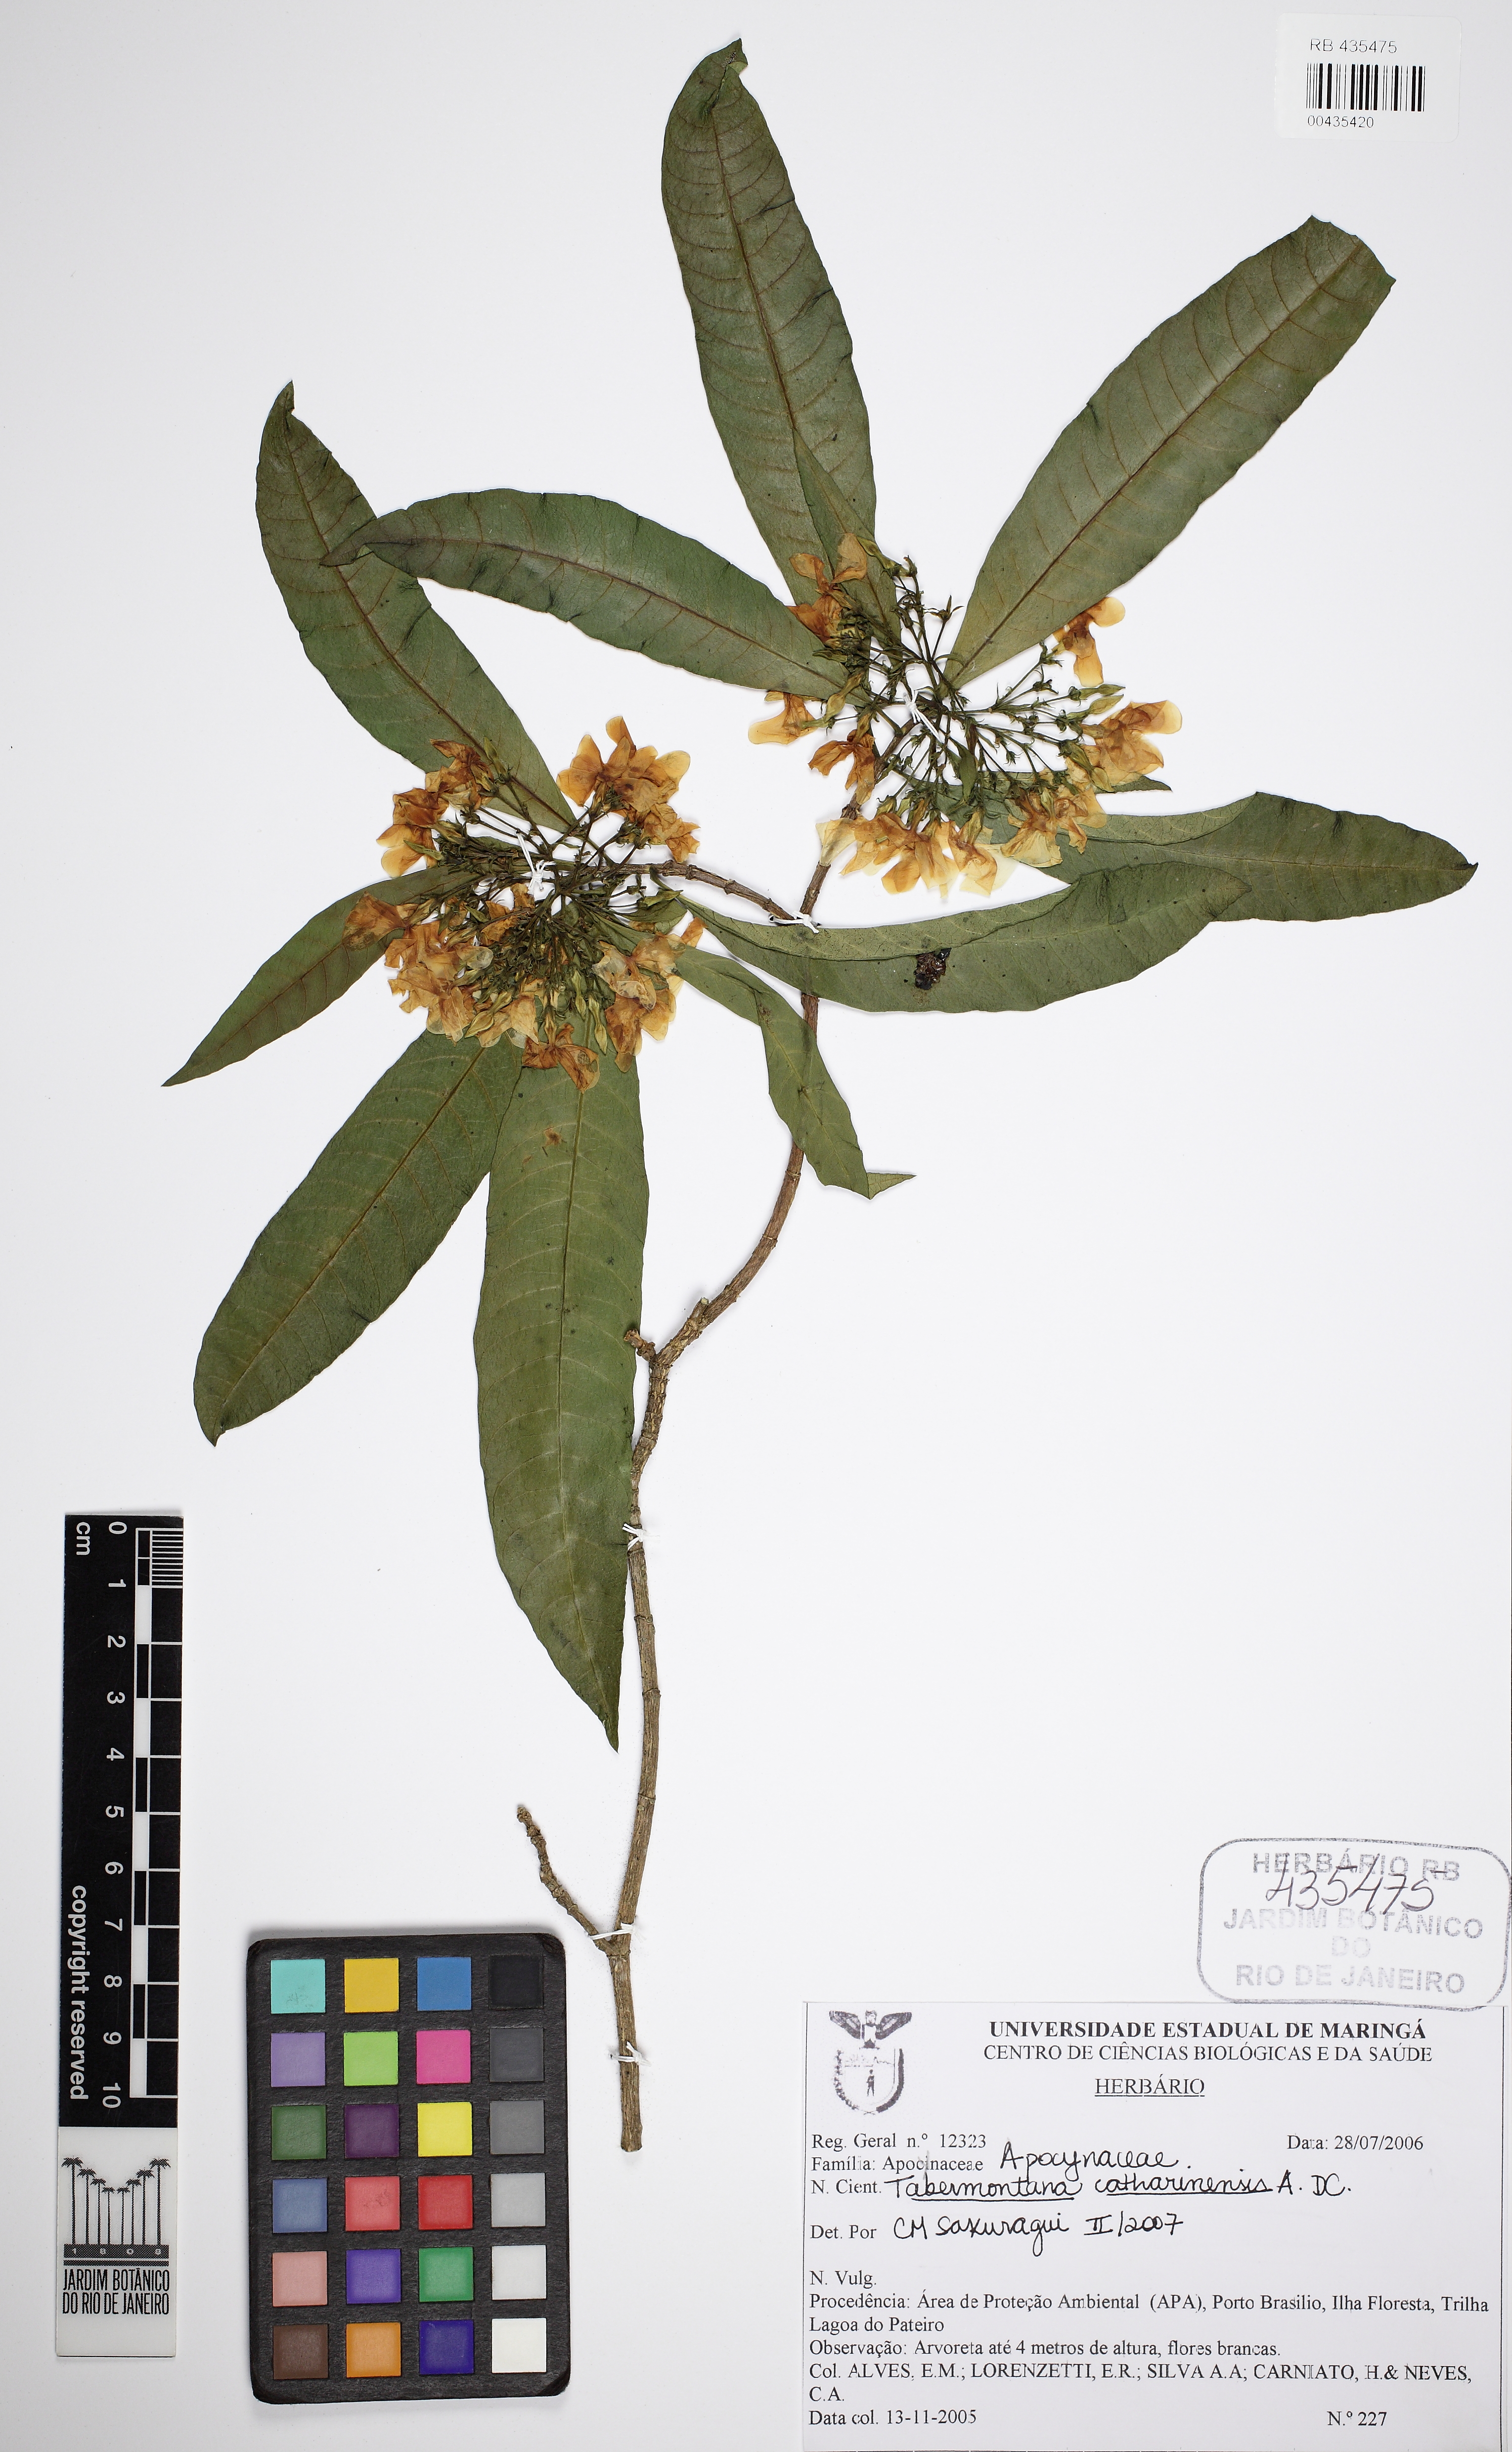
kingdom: Plantae
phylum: Tracheophyta
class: Magnoliopsida
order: Gentianales
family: Apocynaceae
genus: Tabernaemontana
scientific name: Tabernaemontana catharinensis
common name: Pinwheel-flower
